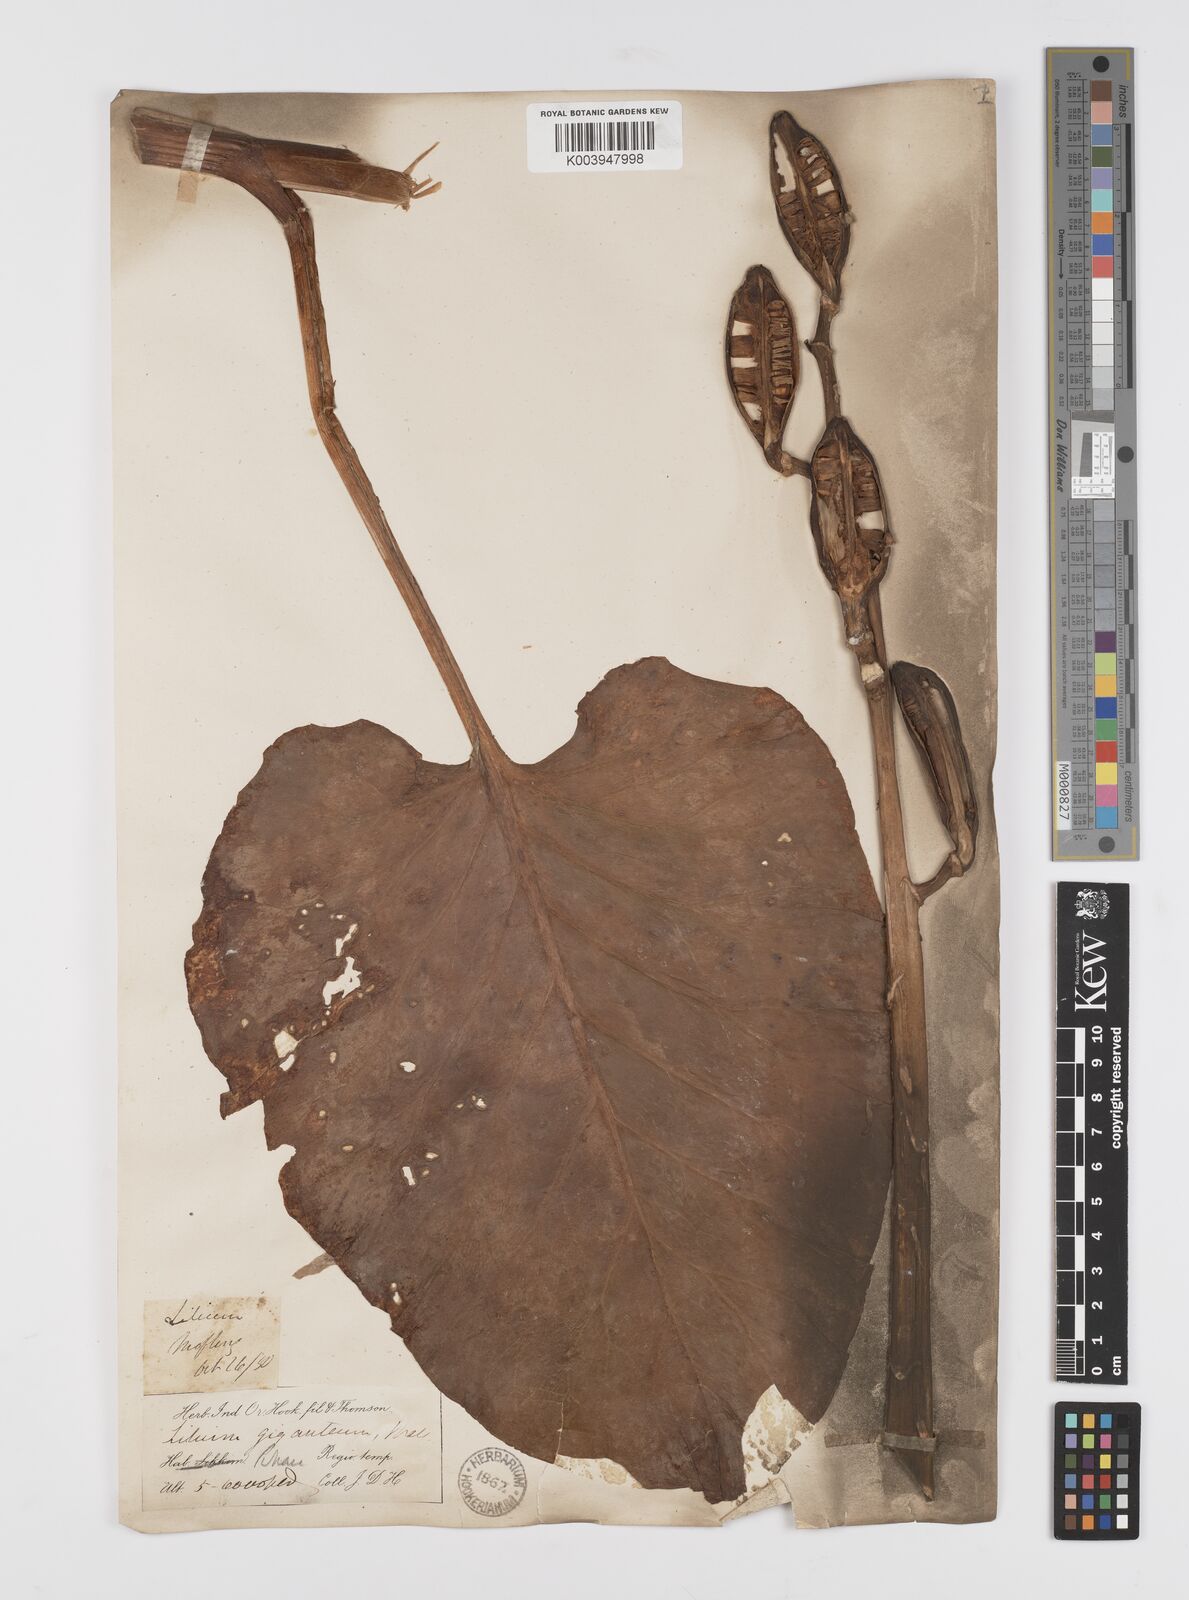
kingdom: Plantae
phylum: Tracheophyta
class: Liliopsida
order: Liliales
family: Liliaceae
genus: Cardiocrinum
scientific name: Cardiocrinum giganteum
